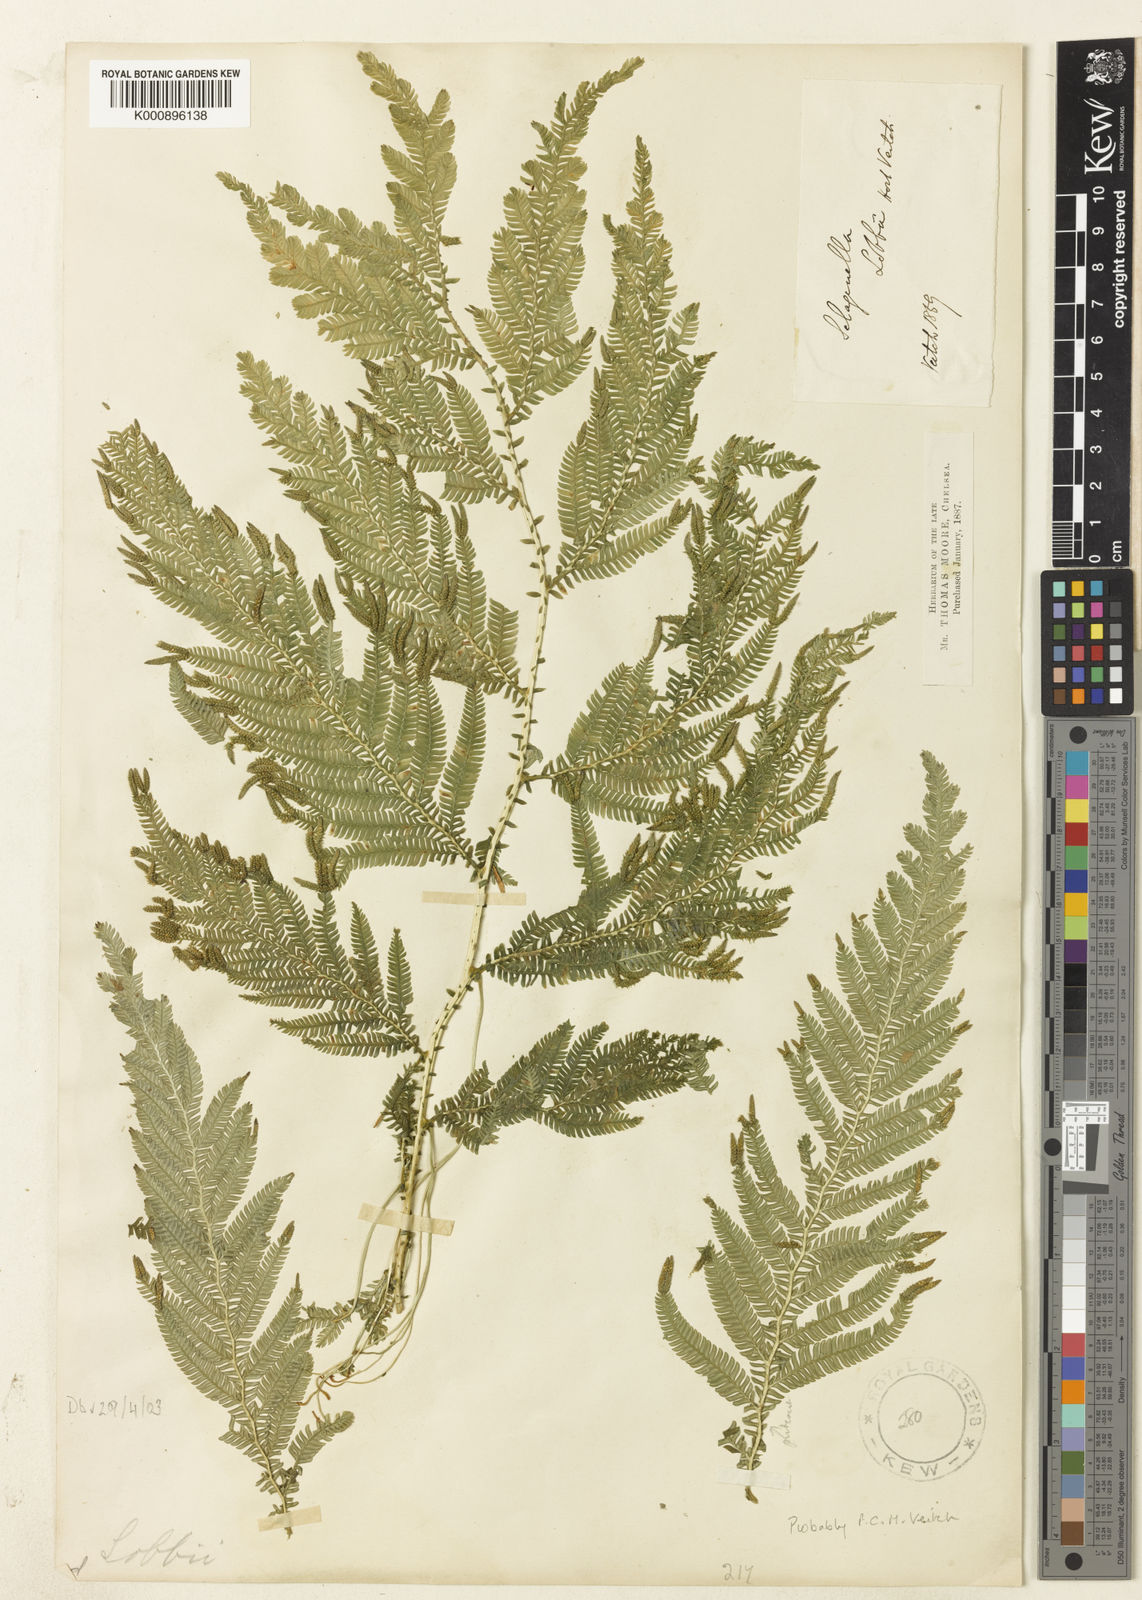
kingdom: Plantae
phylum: Tracheophyta
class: Lycopodiopsida
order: Selaginellales
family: Selaginellaceae
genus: Selaginella
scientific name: Selaginella
